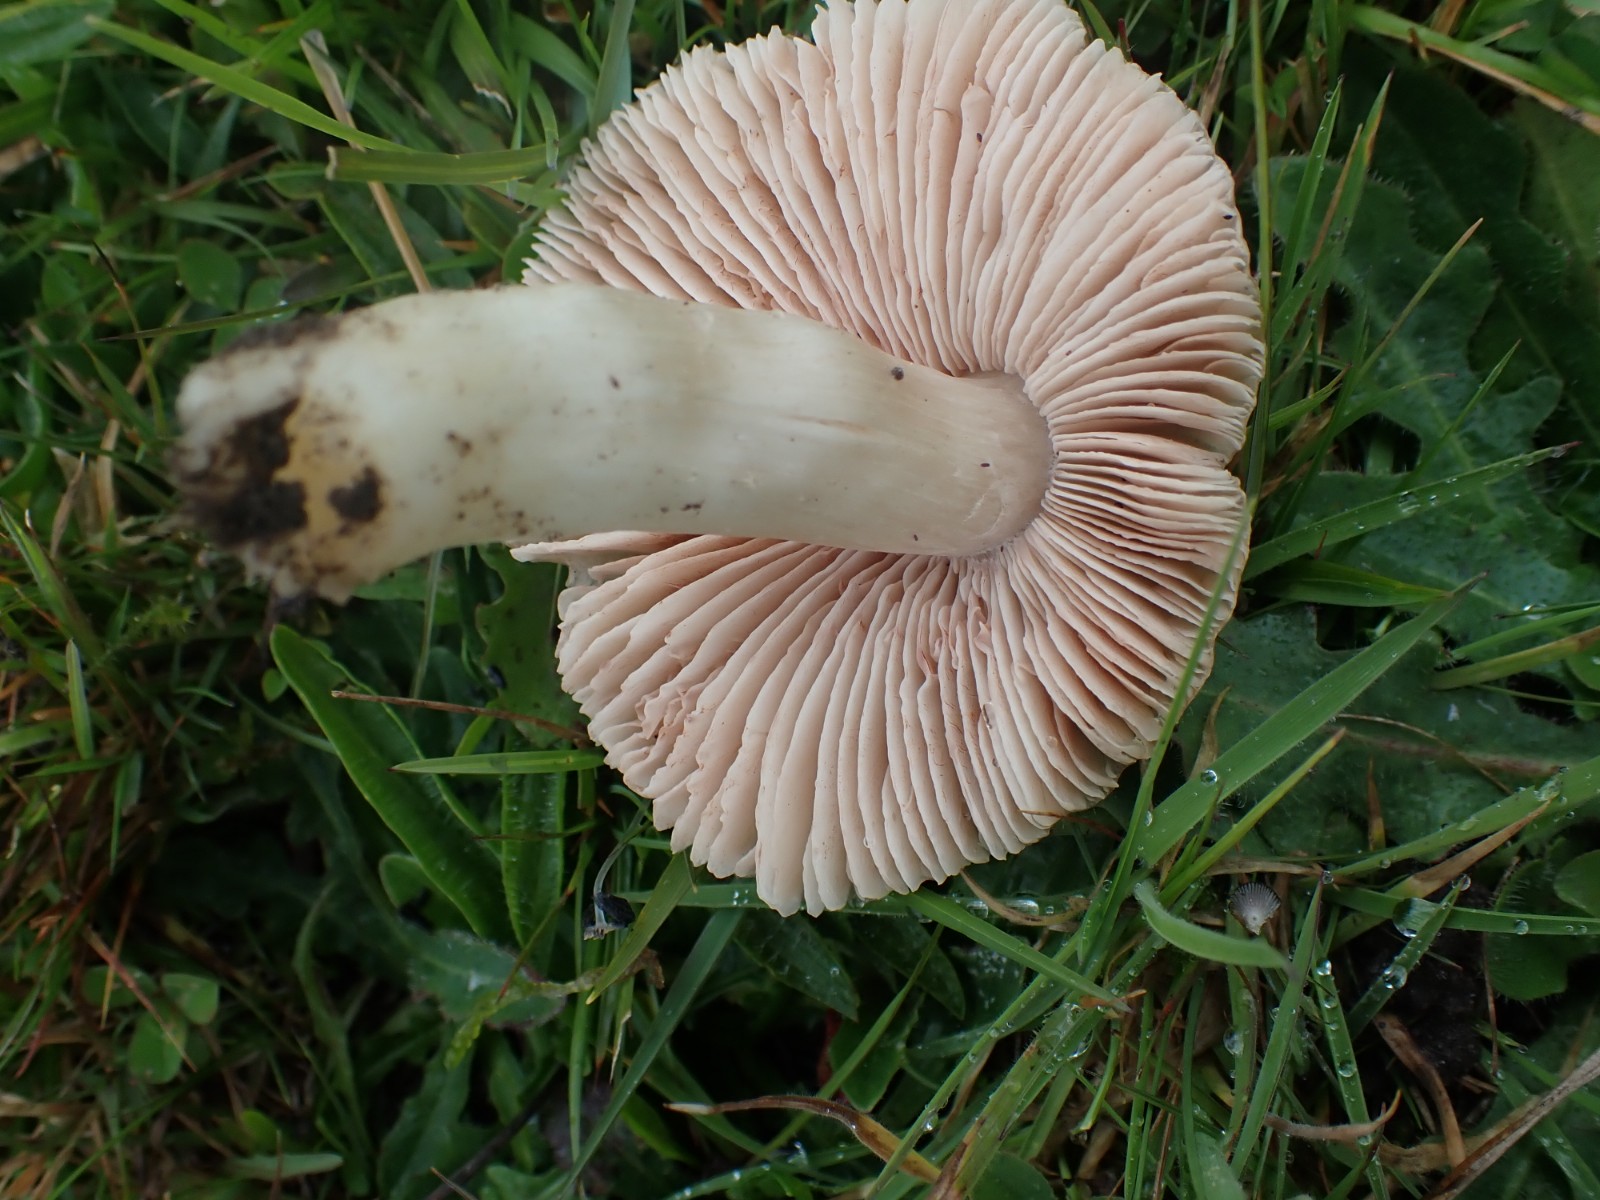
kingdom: Fungi
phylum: Basidiomycota
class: Agaricomycetes
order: Agaricales
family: Entolomataceae
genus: Entoloma
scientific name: Entoloma prunuloides
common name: mel-rødblad
